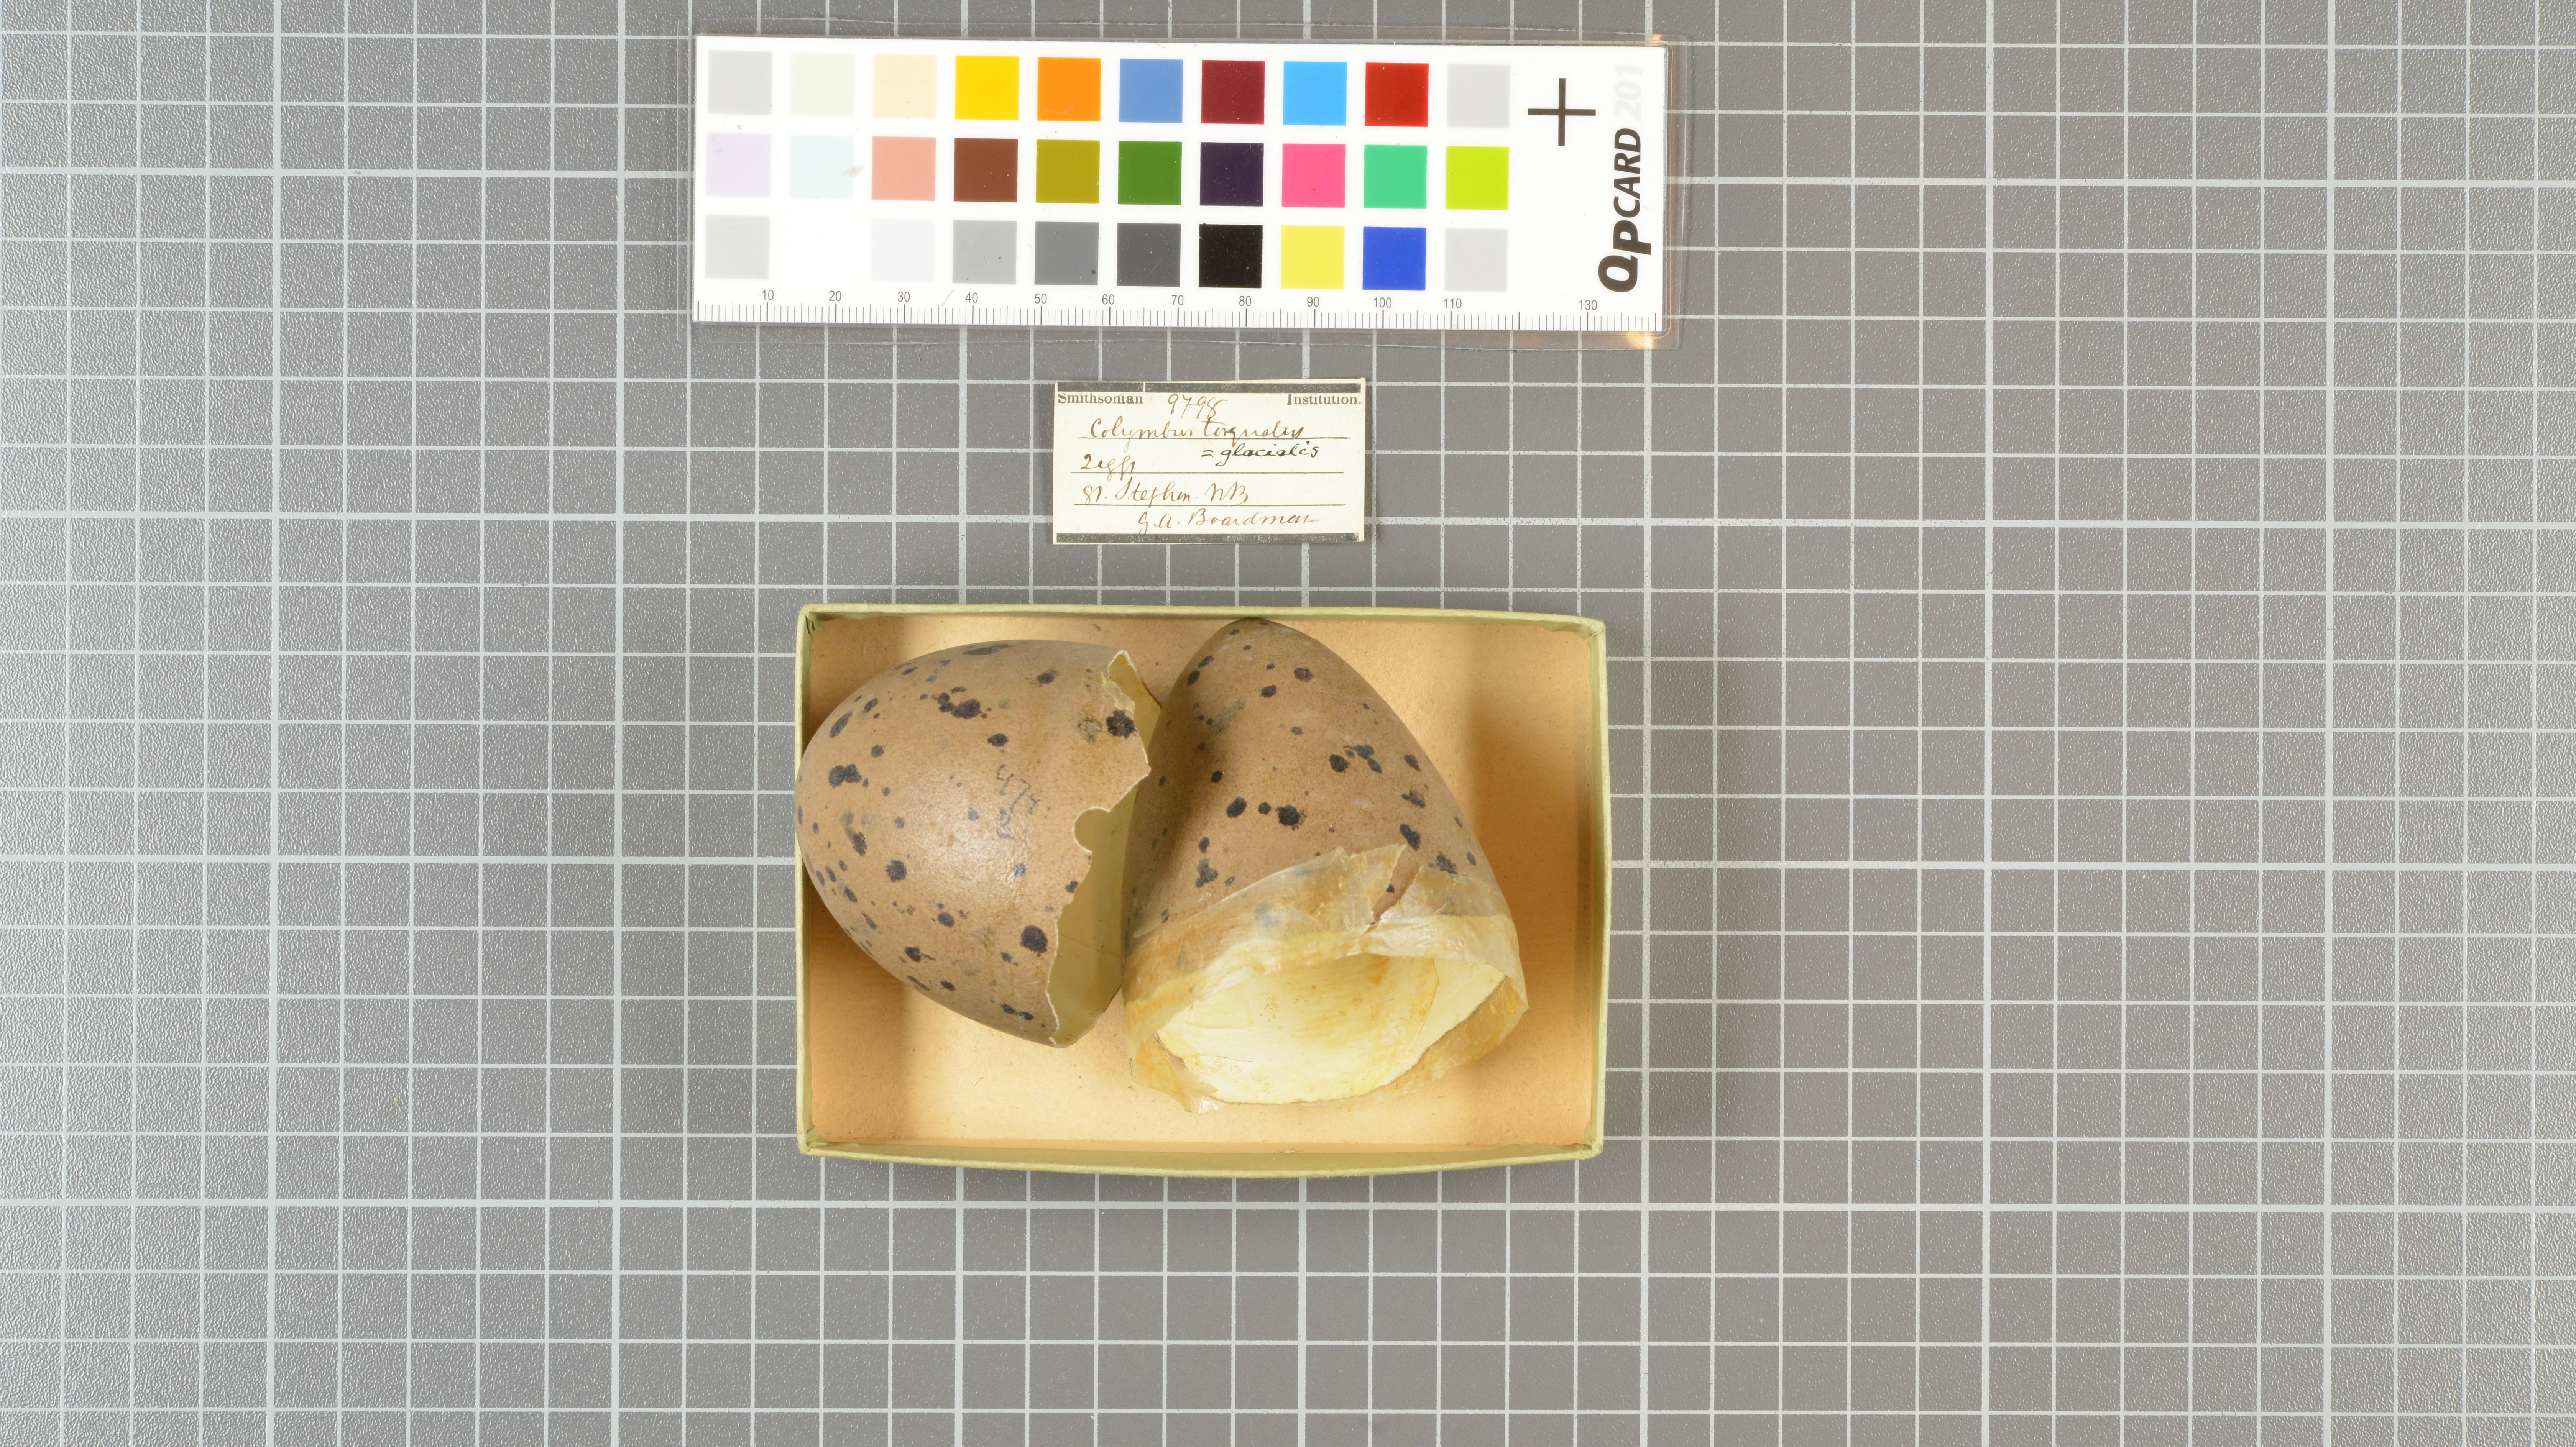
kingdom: Animalia
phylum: Chordata
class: Aves
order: Gaviiformes
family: Gaviidae
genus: Gavia
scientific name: Gavia immer
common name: Common loon
